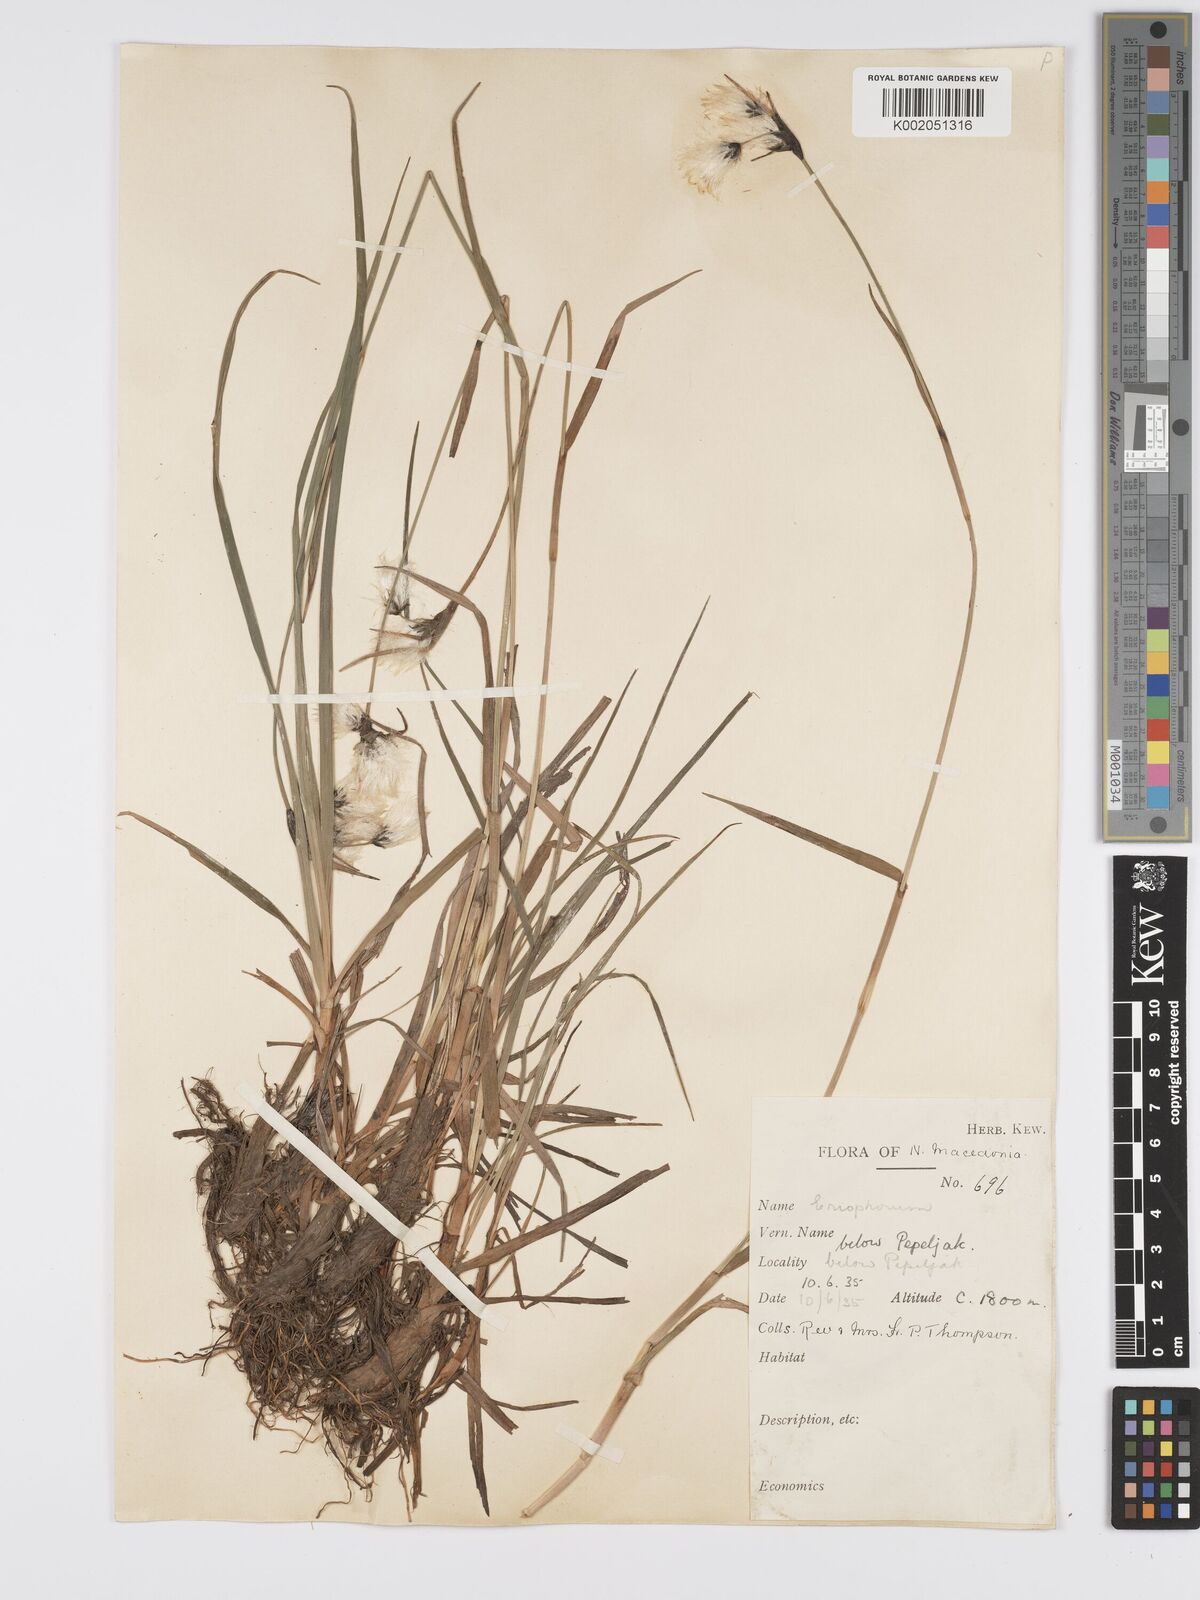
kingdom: Plantae
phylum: Tracheophyta
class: Liliopsida
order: Poales
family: Cyperaceae
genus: Eriophorum
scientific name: Eriophorum latifolium
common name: Broad-leaved cottongrass
